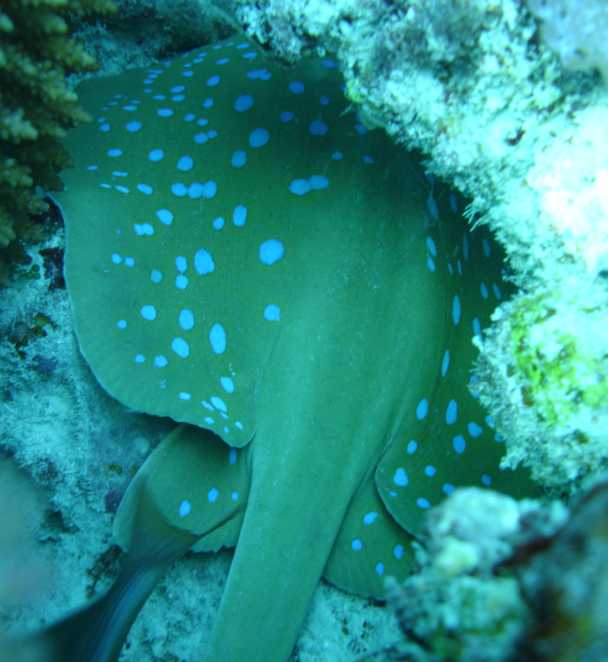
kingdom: Animalia
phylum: Chordata
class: Elasmobranchii
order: Myliobatiformes
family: Dasyatidae
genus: Taeniura
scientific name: Taeniura lymma
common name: Bluespotted ribbontail ray
